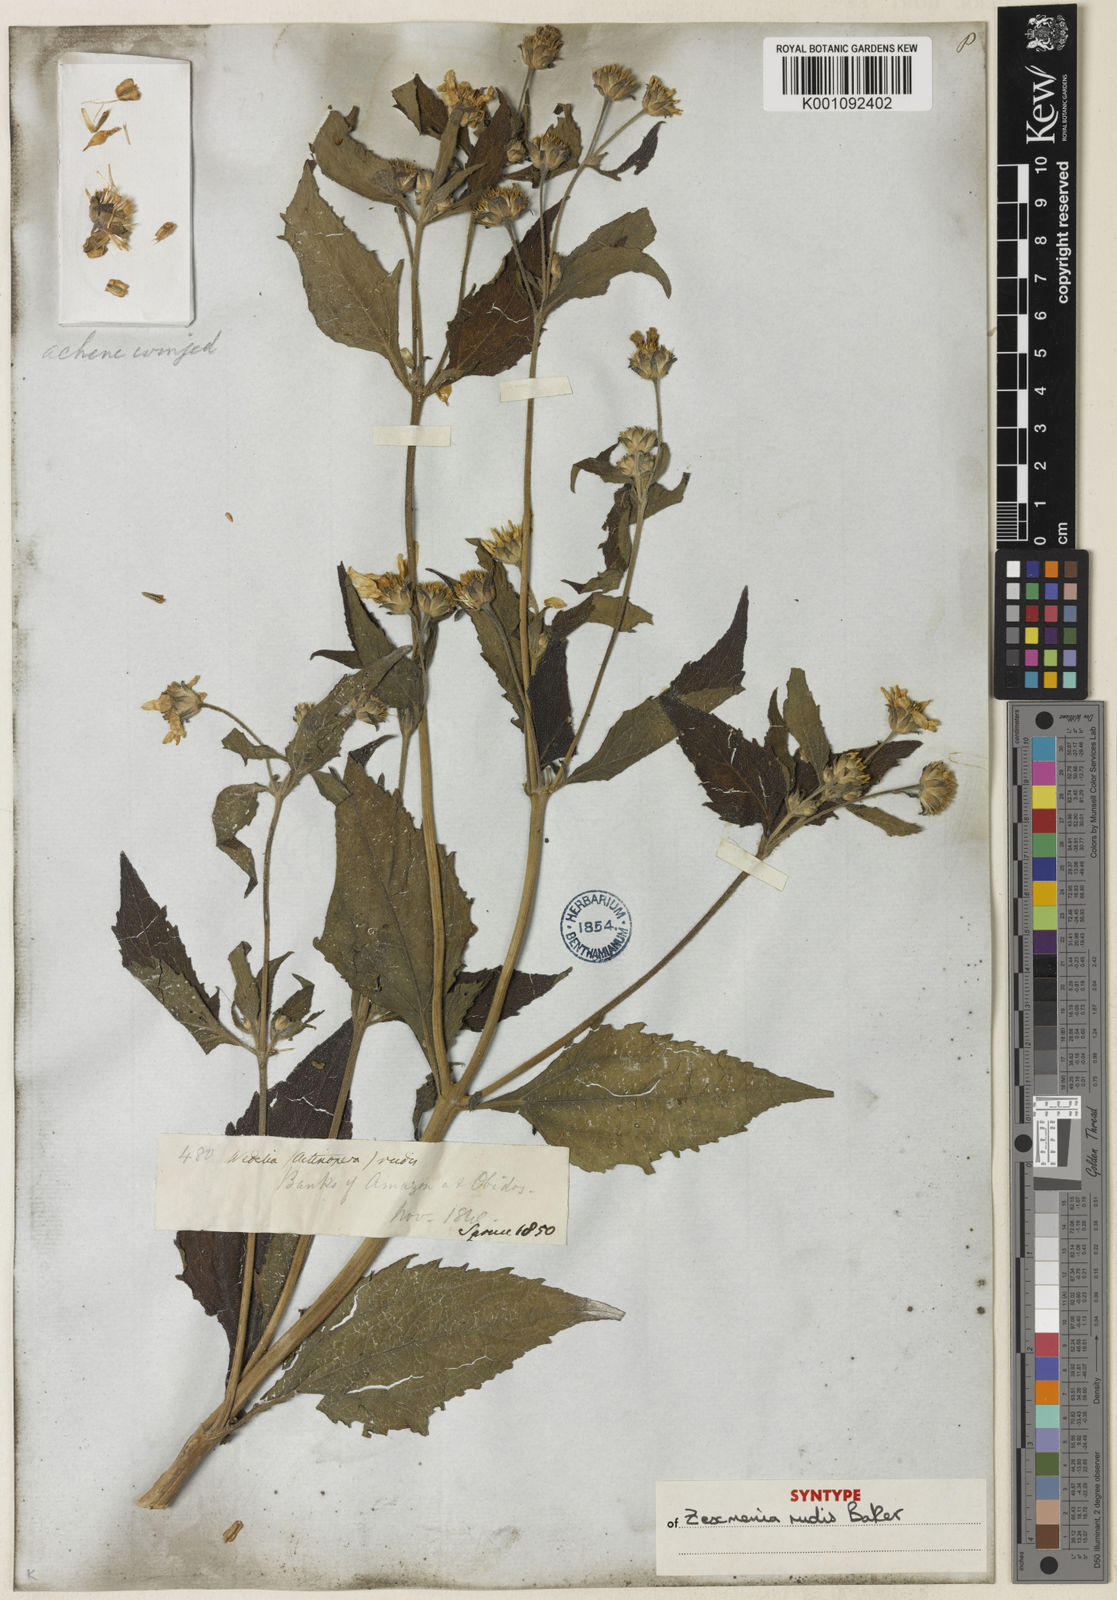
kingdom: Plantae
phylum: Tracheophyta
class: Magnoliopsida
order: Asterales
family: Asteraceae
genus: Wedelia
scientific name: Wedelia rudis
